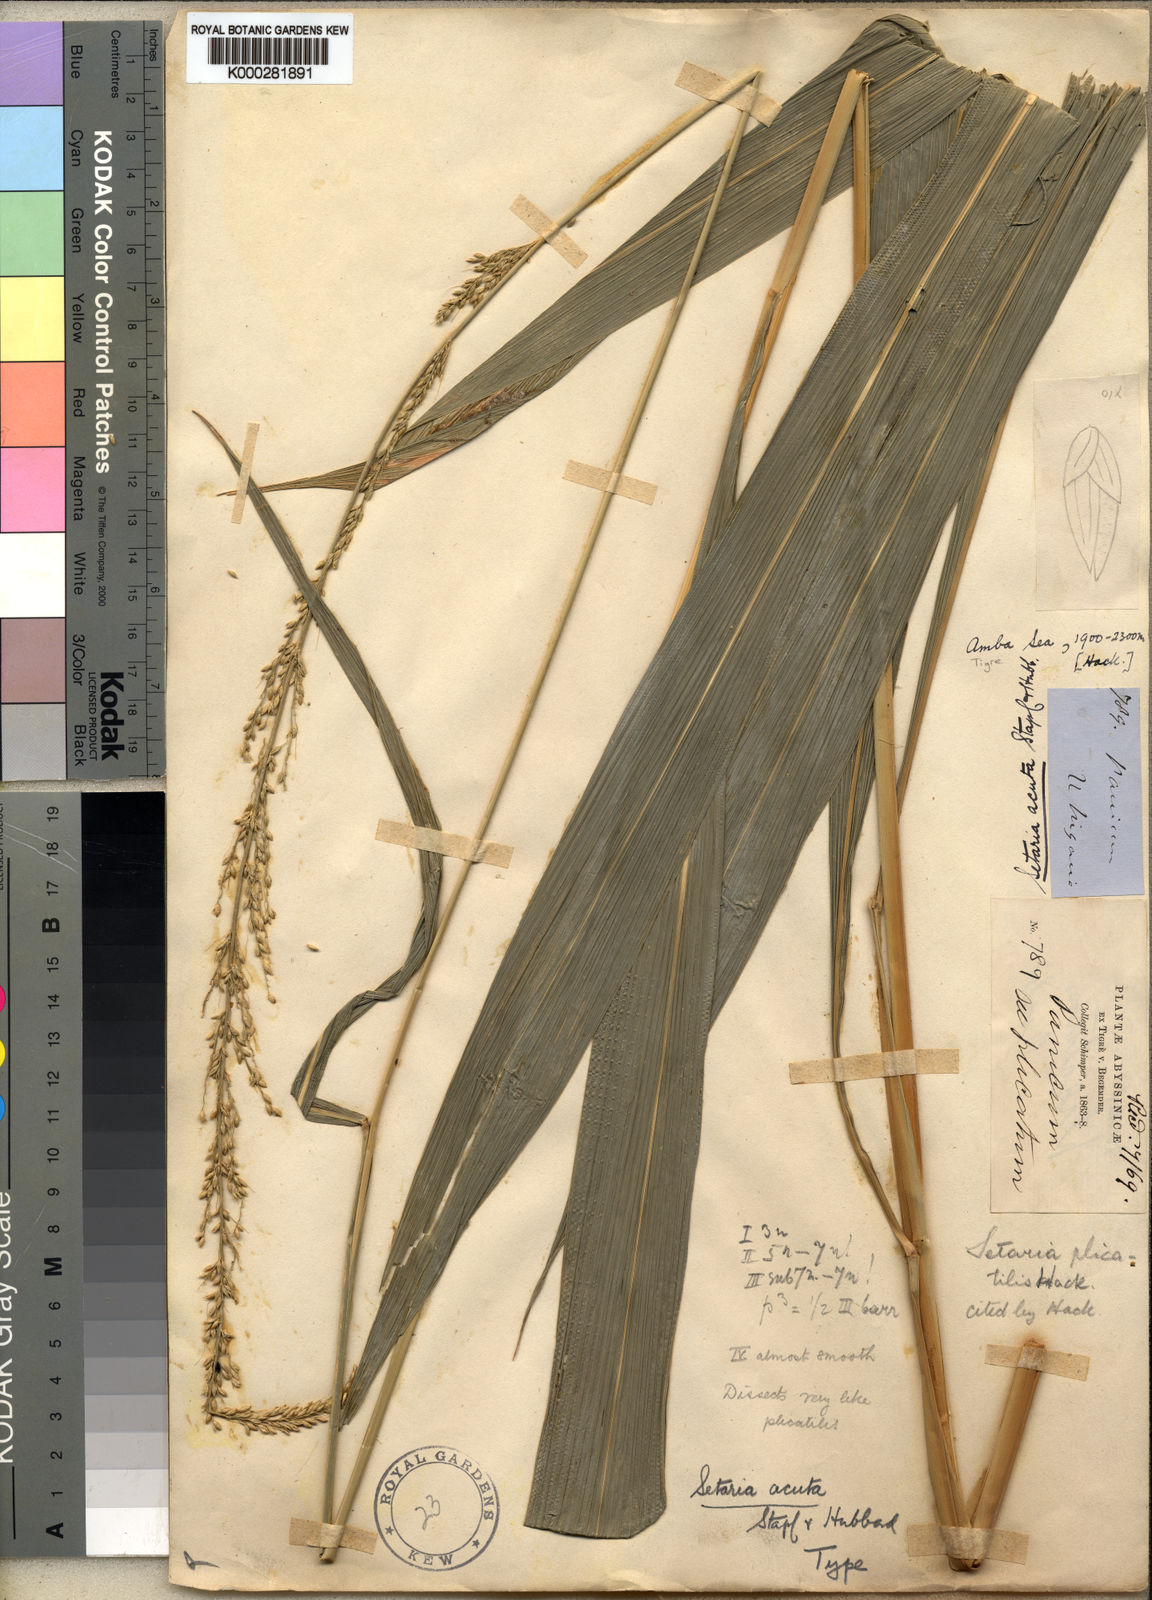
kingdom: Plantae
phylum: Tracheophyta
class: Liliopsida
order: Poales
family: Poaceae
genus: Setaria
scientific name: Setaria megaphylla
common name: Bigleaf bristlegrass
